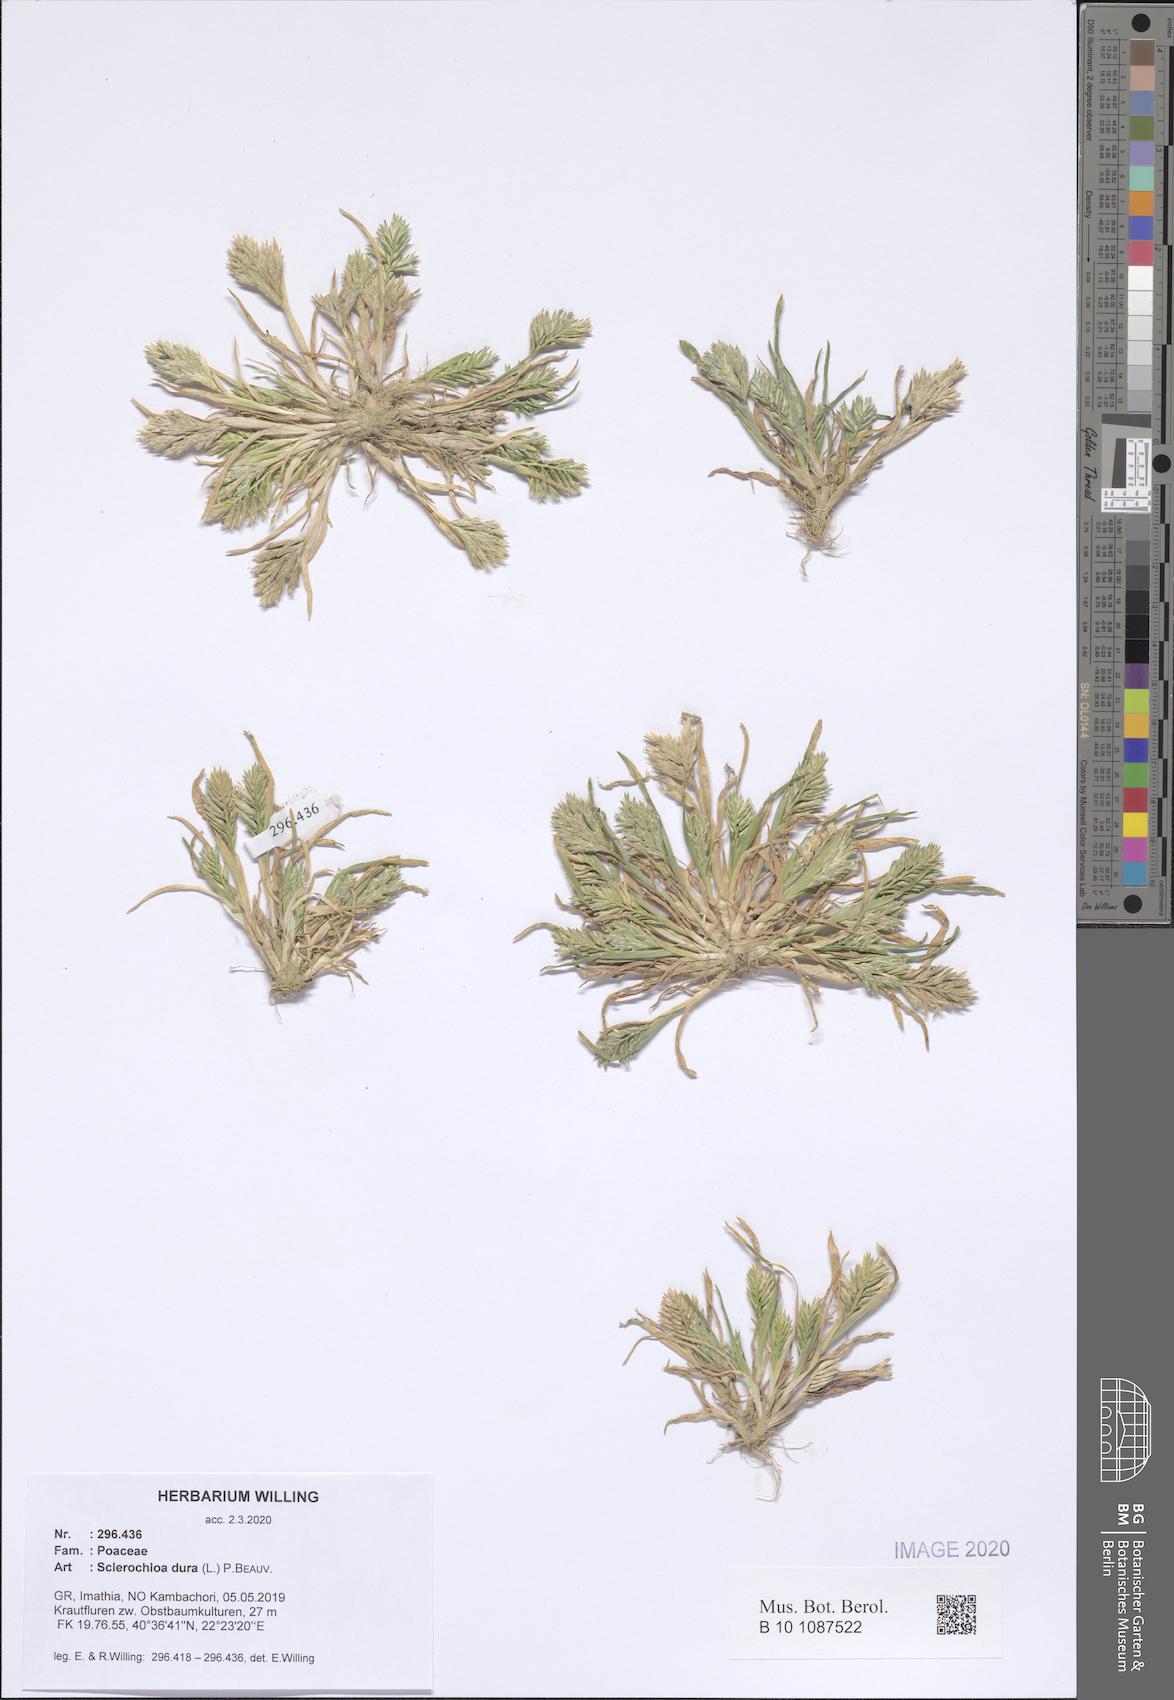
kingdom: Plantae
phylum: Tracheophyta
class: Liliopsida
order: Poales
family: Poaceae
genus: Sclerochloa
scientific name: Sclerochloa dura
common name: Common hardgrass
